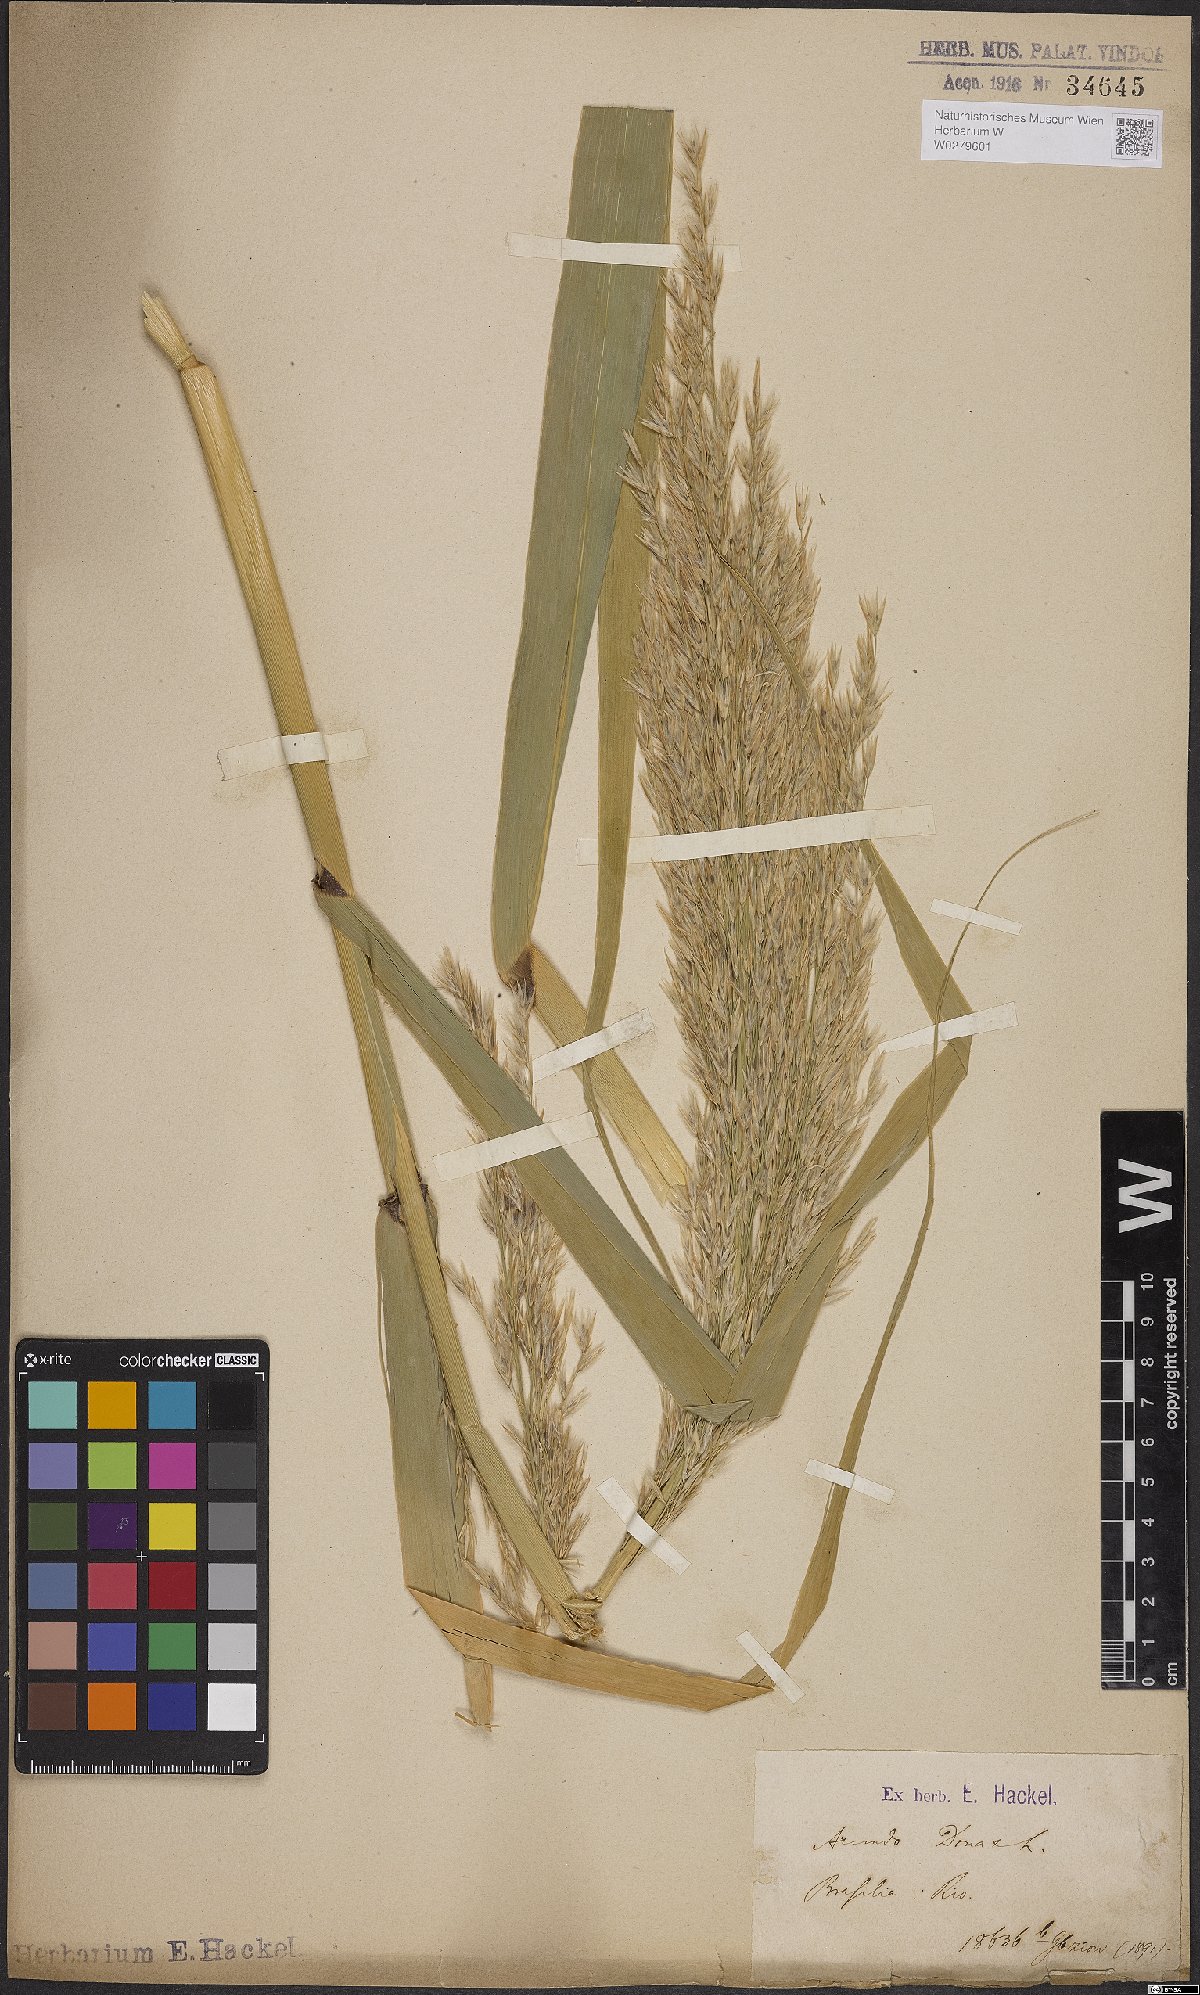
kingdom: Plantae
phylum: Tracheophyta
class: Liliopsida
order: Poales
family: Poaceae
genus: Arundo
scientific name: Arundo donax
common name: Giant reed
